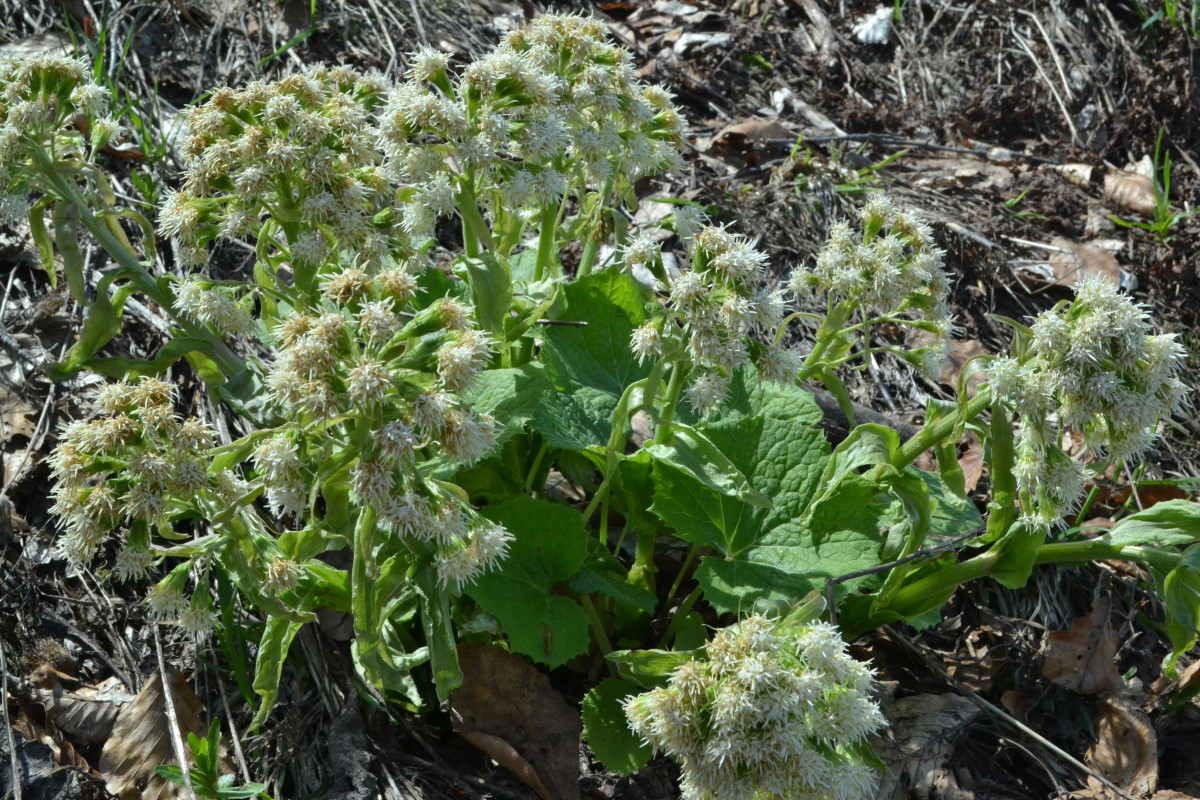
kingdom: Plantae
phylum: Tracheophyta
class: Magnoliopsida
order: Asterales
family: Asteraceae
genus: Petasites
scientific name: Petasites
